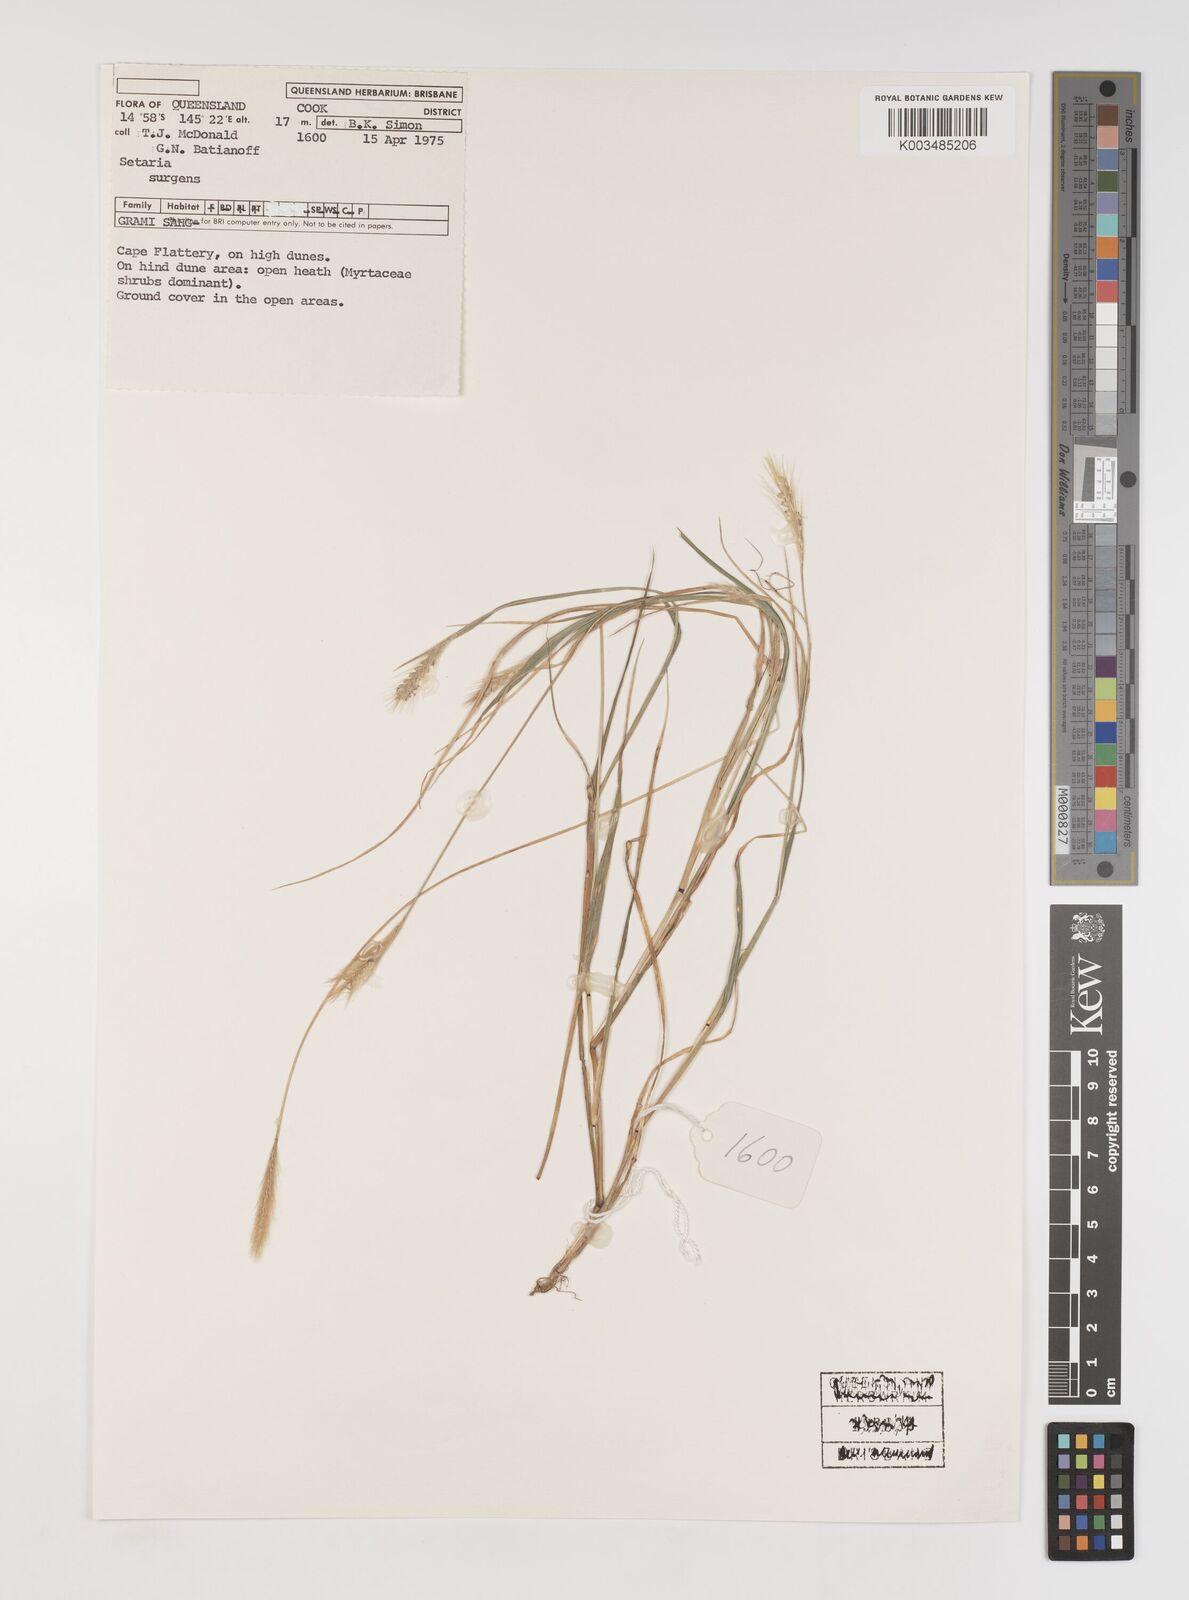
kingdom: Plantae
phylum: Tracheophyta
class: Liliopsida
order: Poales
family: Poaceae
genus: Setaria
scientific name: Setaria apiculata
